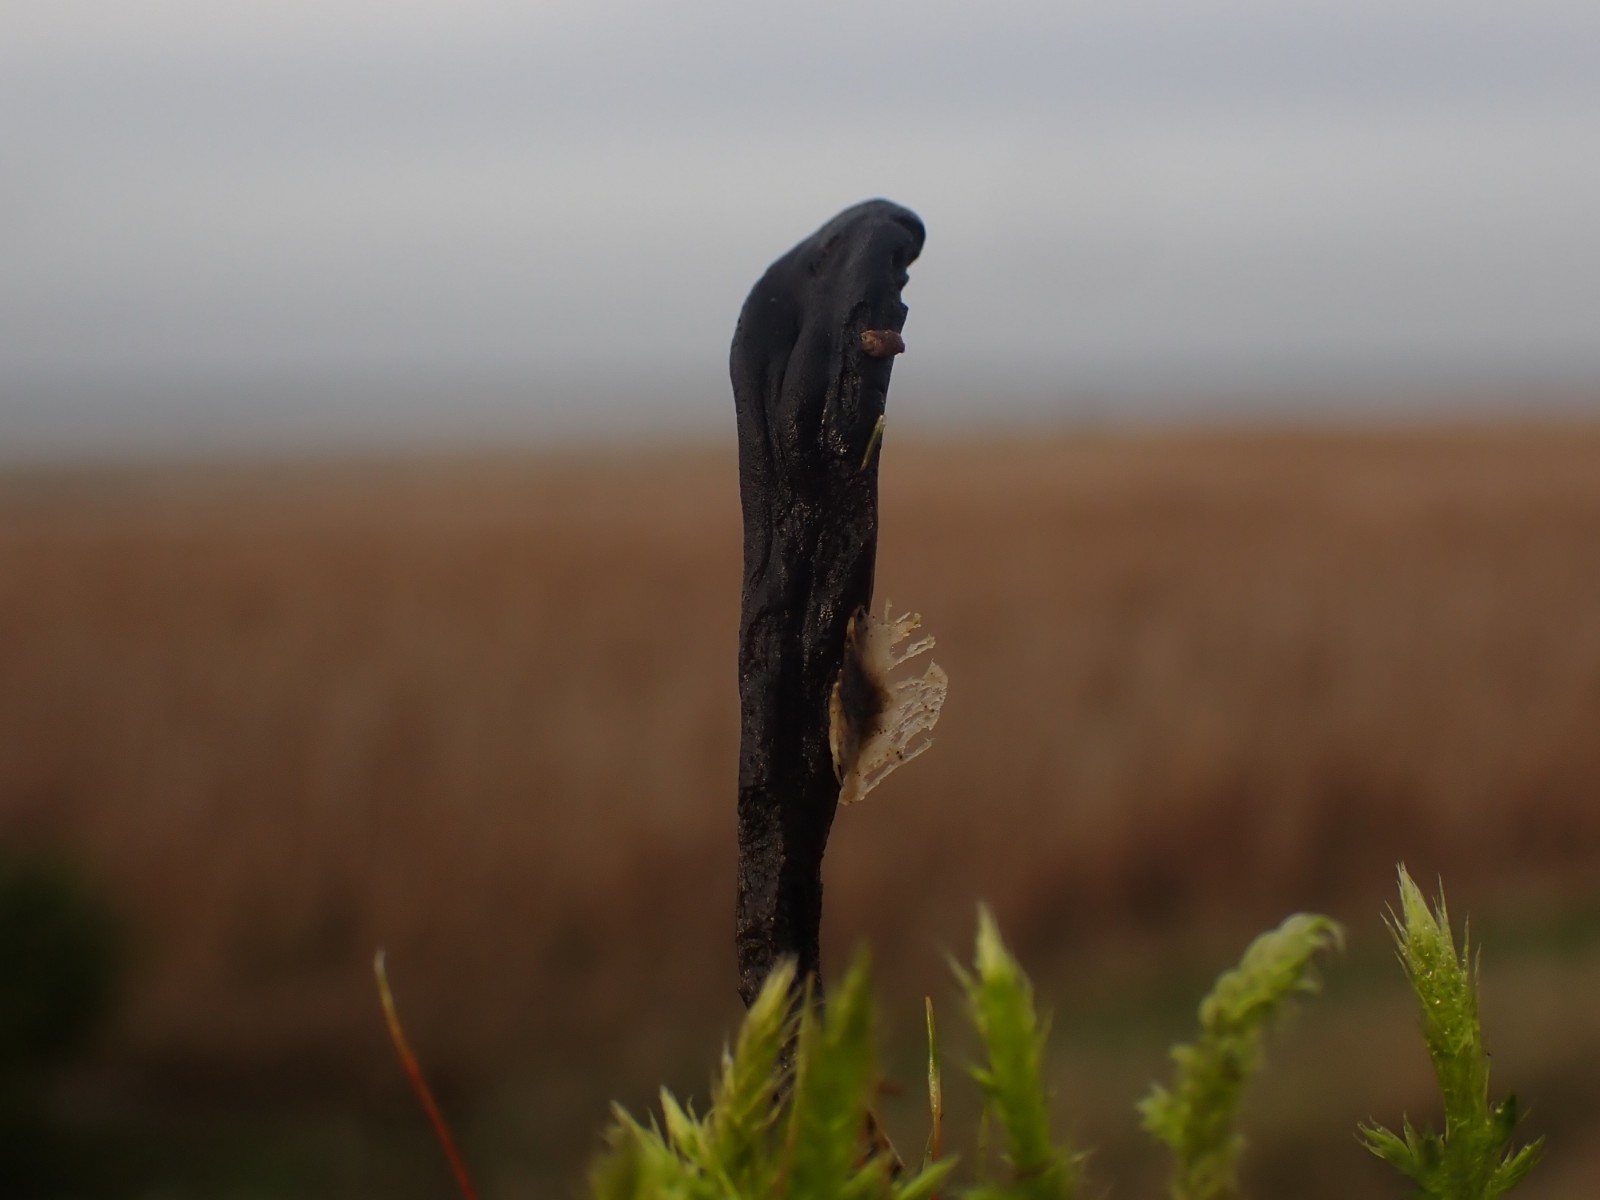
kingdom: Fungi
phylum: Ascomycota
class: Geoglossomycetes
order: Geoglossales
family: Geoglossaceae
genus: Geoglossum
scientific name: Geoglossum cookeianum
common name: bred jordtunge
